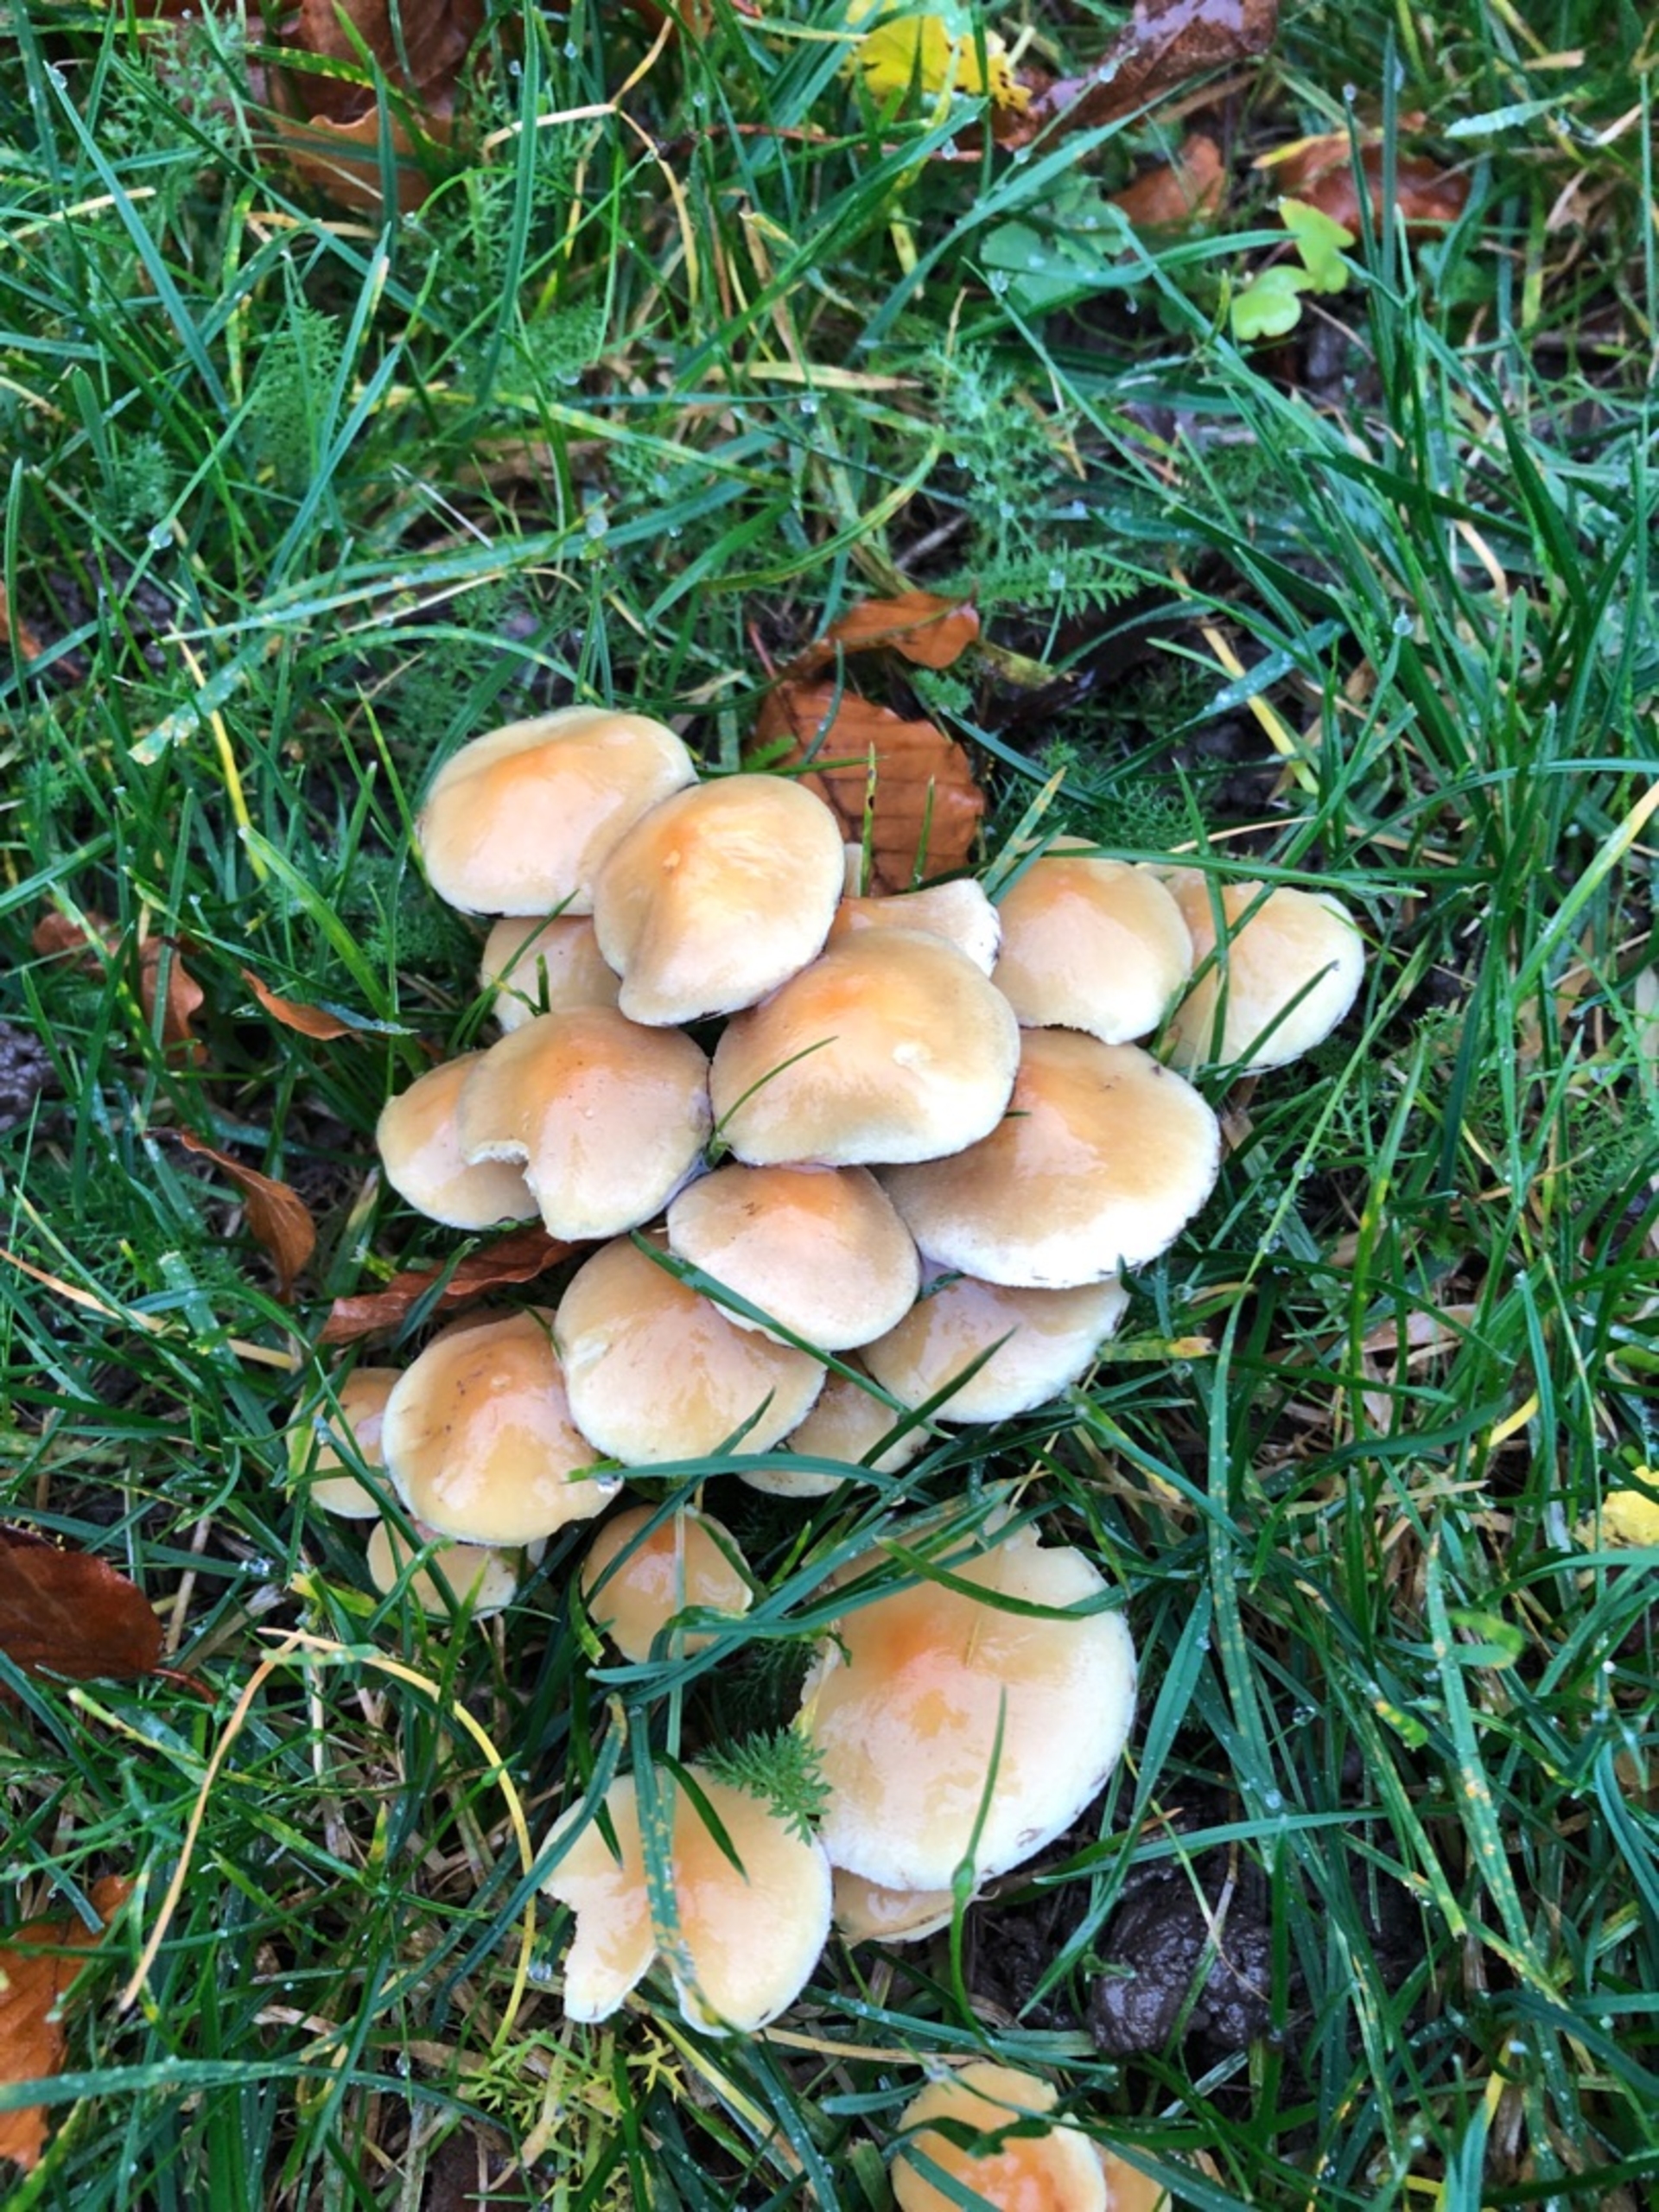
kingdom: Fungi
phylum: Basidiomycota
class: Agaricomycetes
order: Agaricales
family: Strophariaceae
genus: Hypholoma
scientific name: Hypholoma
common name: Svovlhat
